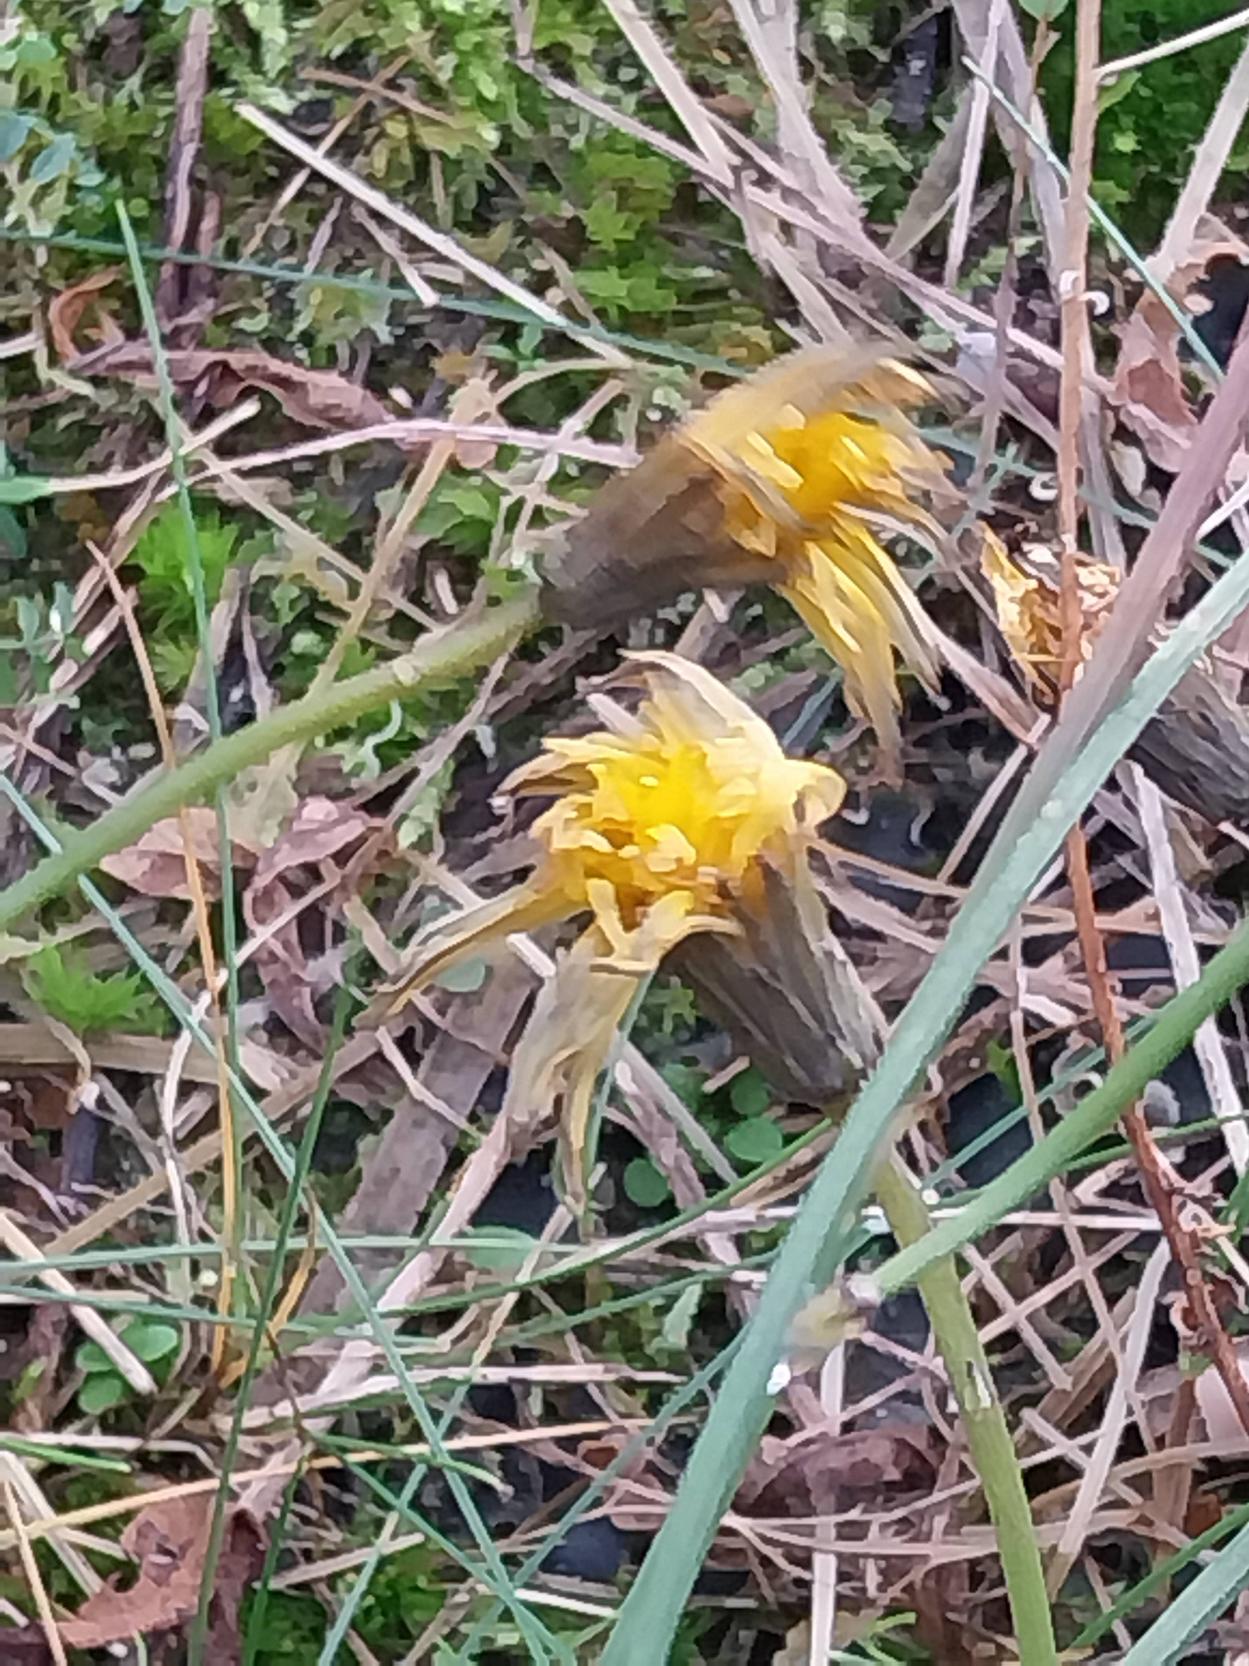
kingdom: Plantae
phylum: Tracheophyta
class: Magnoliopsida
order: Asterales
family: Asteraceae
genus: Hypochaeris
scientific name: Hypochaeris radicata
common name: Almindelig kongepen
